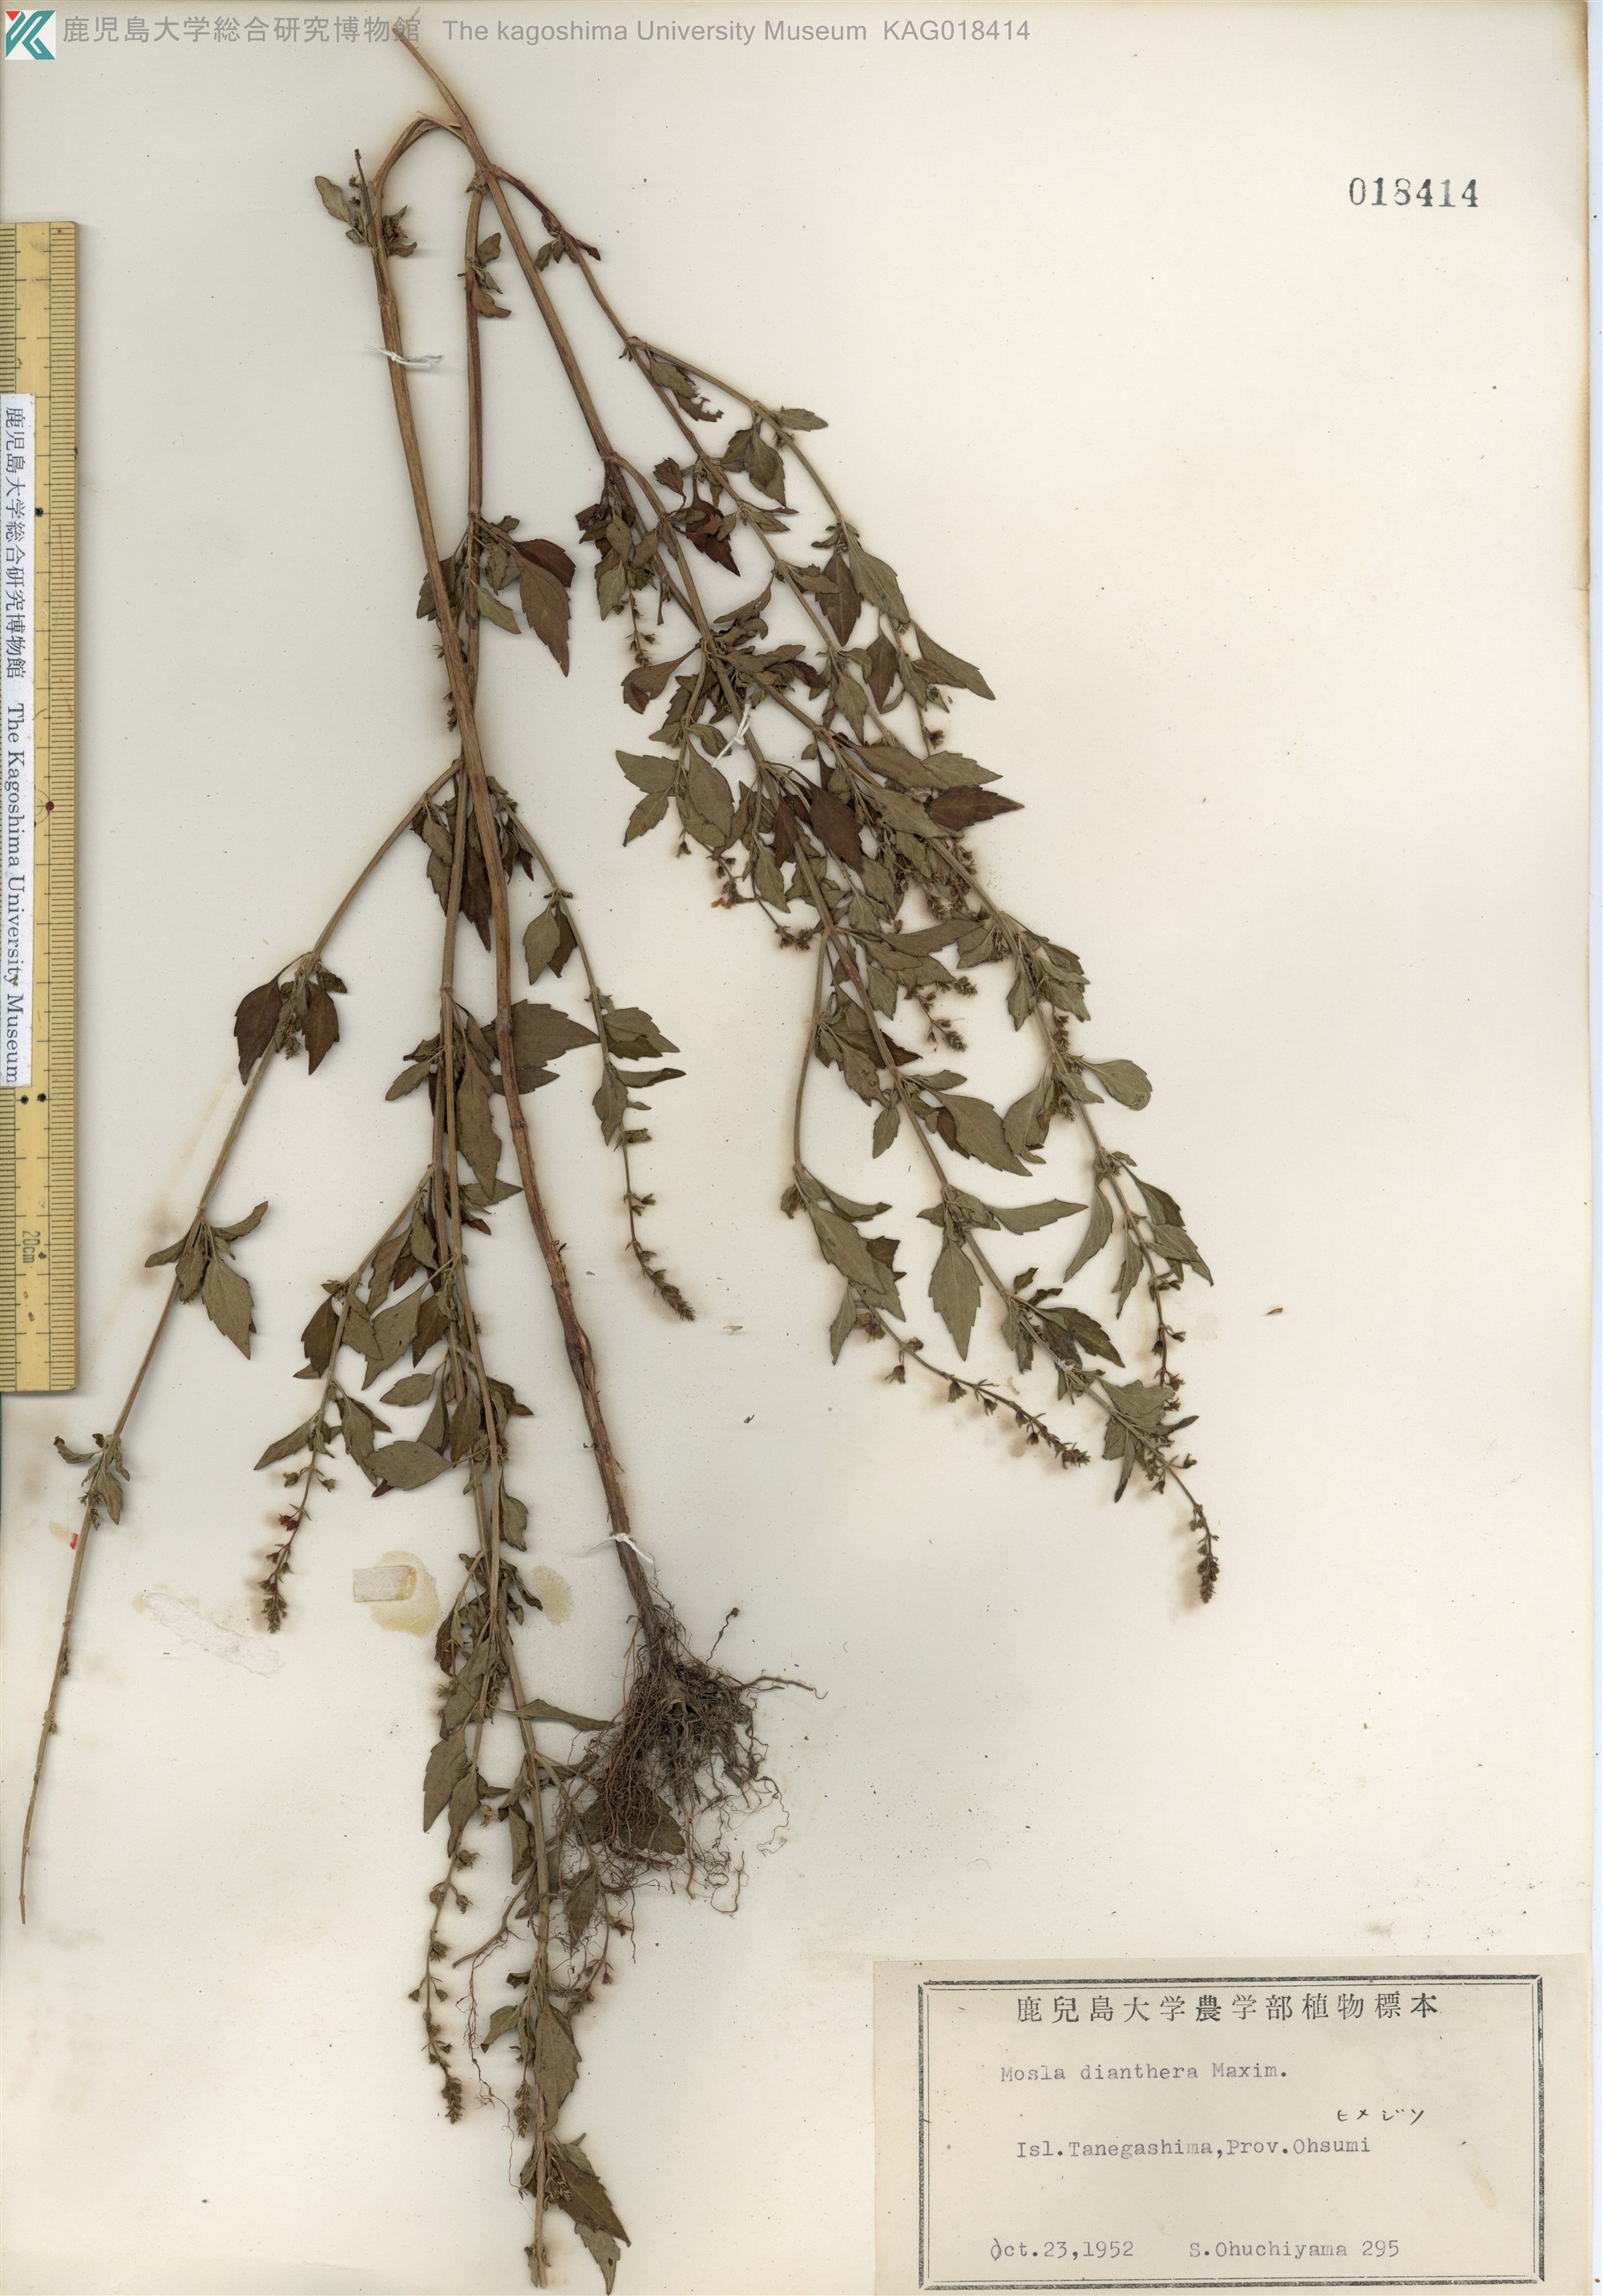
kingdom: Plantae
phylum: Tracheophyta
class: Magnoliopsida
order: Lamiales
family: Lamiaceae
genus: Mosla
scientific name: Mosla dianthera
